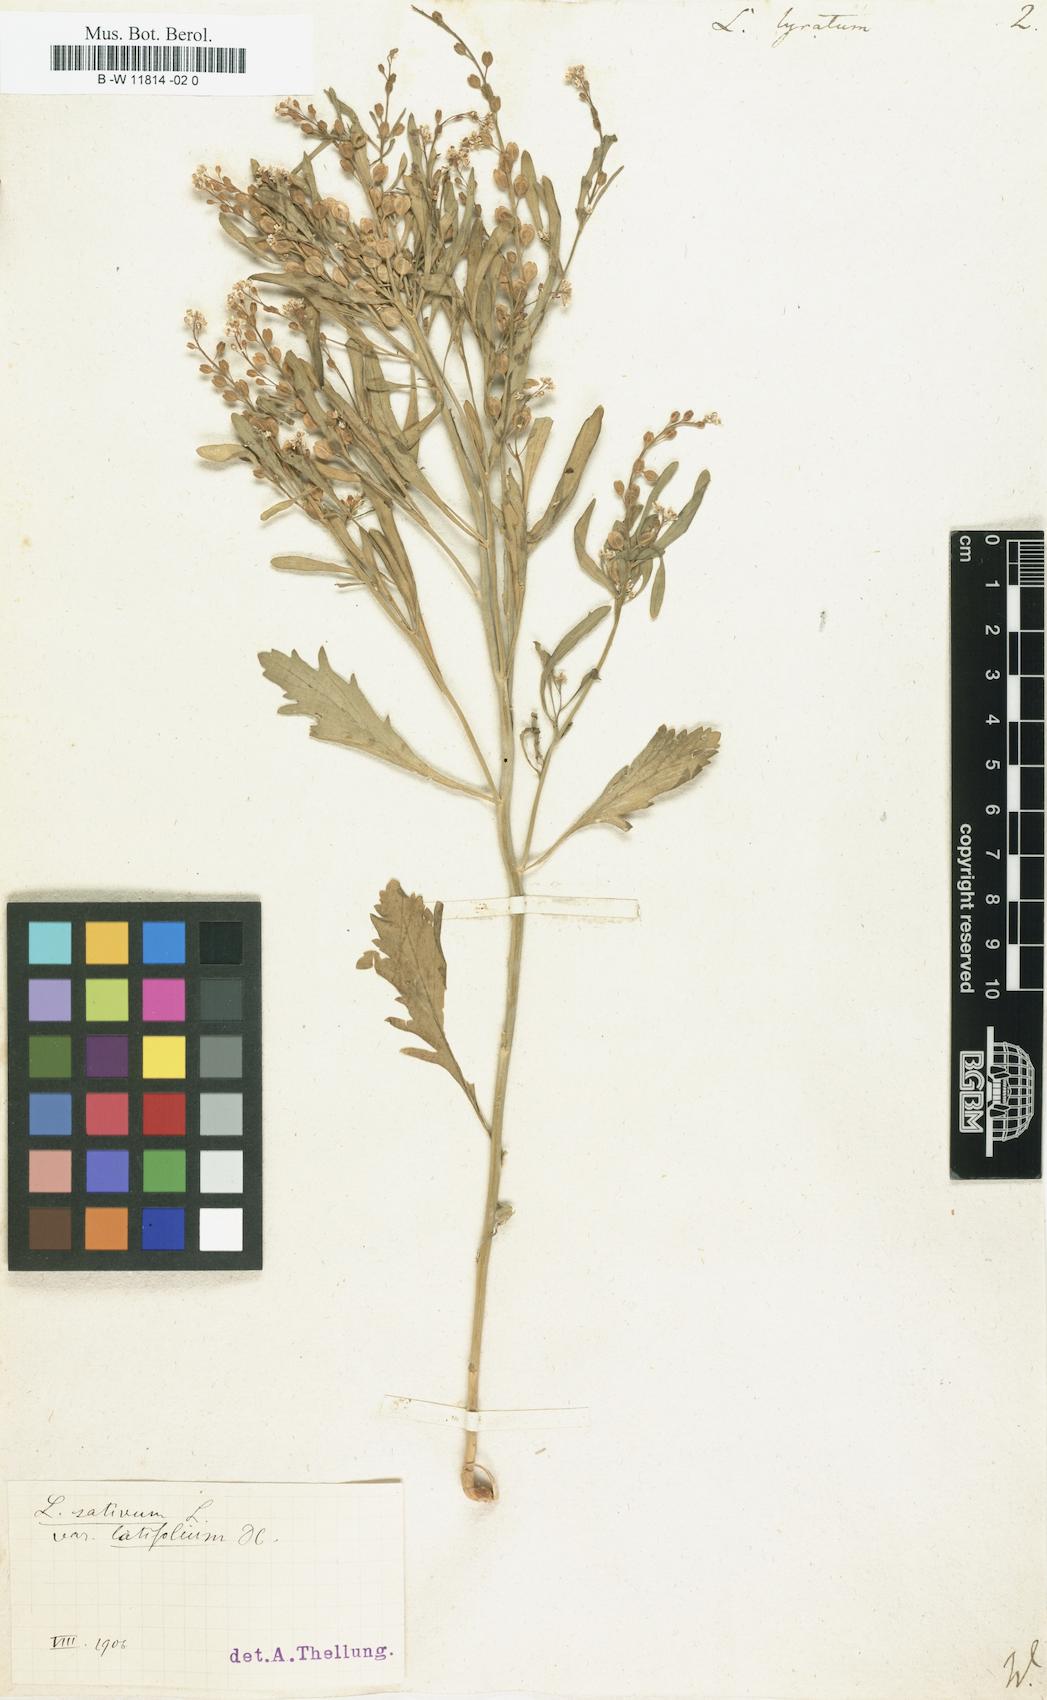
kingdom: Plantae
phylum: Tracheophyta
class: Magnoliopsida
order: Brassicales
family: Brassicaceae
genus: Lepidium
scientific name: Lepidium lyratum
